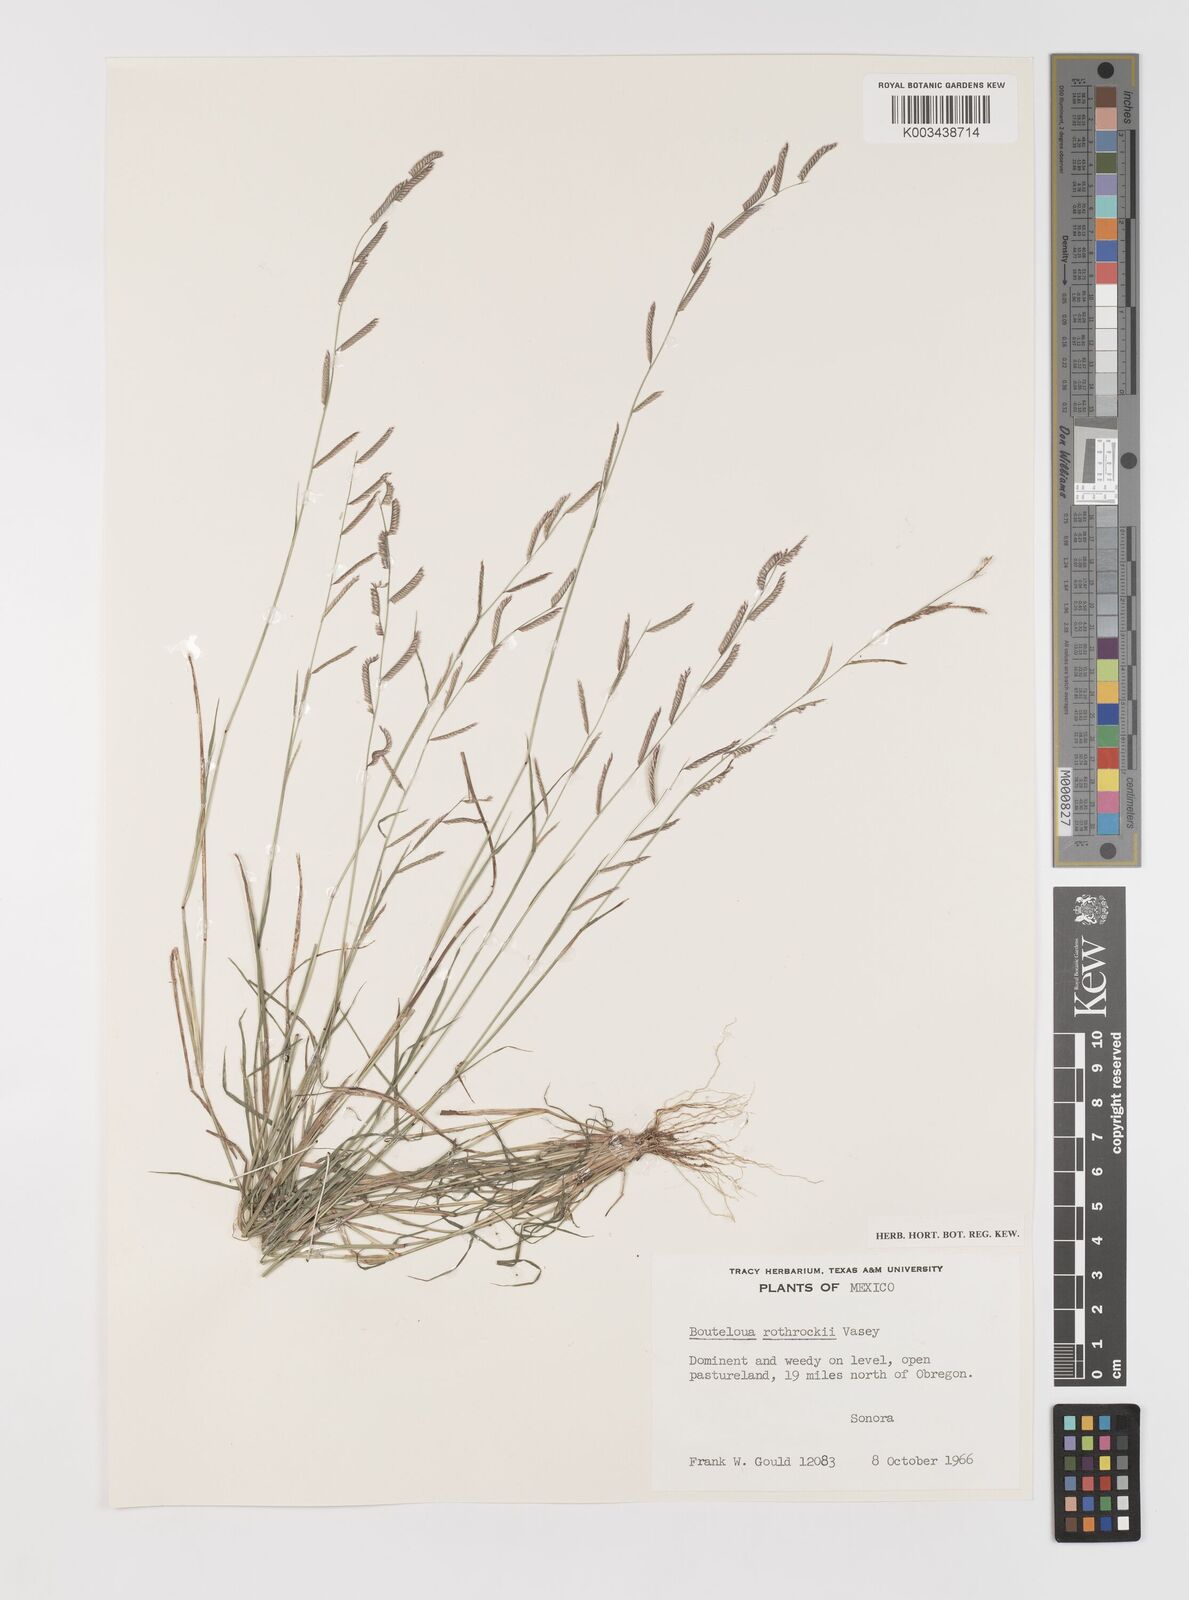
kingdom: Plantae
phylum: Tracheophyta
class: Liliopsida
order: Poales
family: Poaceae
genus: Bouteloua
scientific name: Bouteloua barbata
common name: Six-weeks grama
